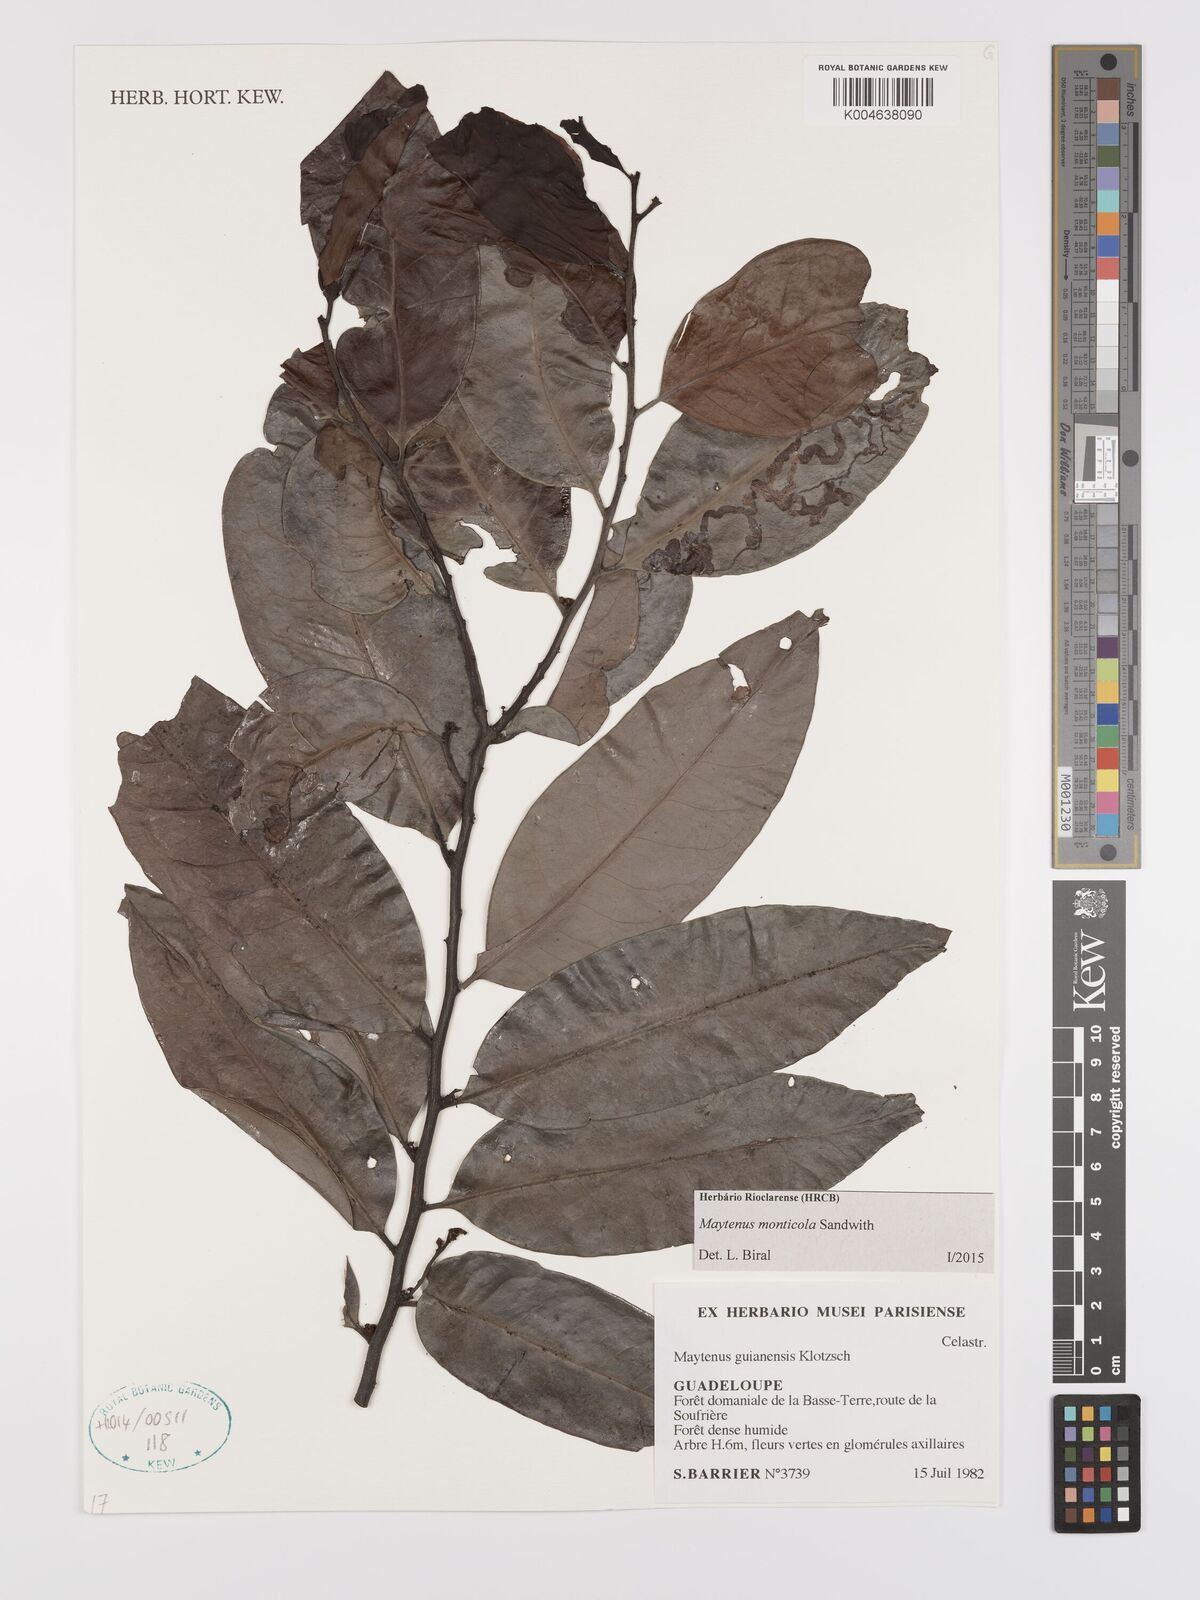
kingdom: Plantae
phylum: Tracheophyta
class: Magnoliopsida
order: Celastrales
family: Celastraceae
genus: Monteverdia
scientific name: Monteverdia monticola
